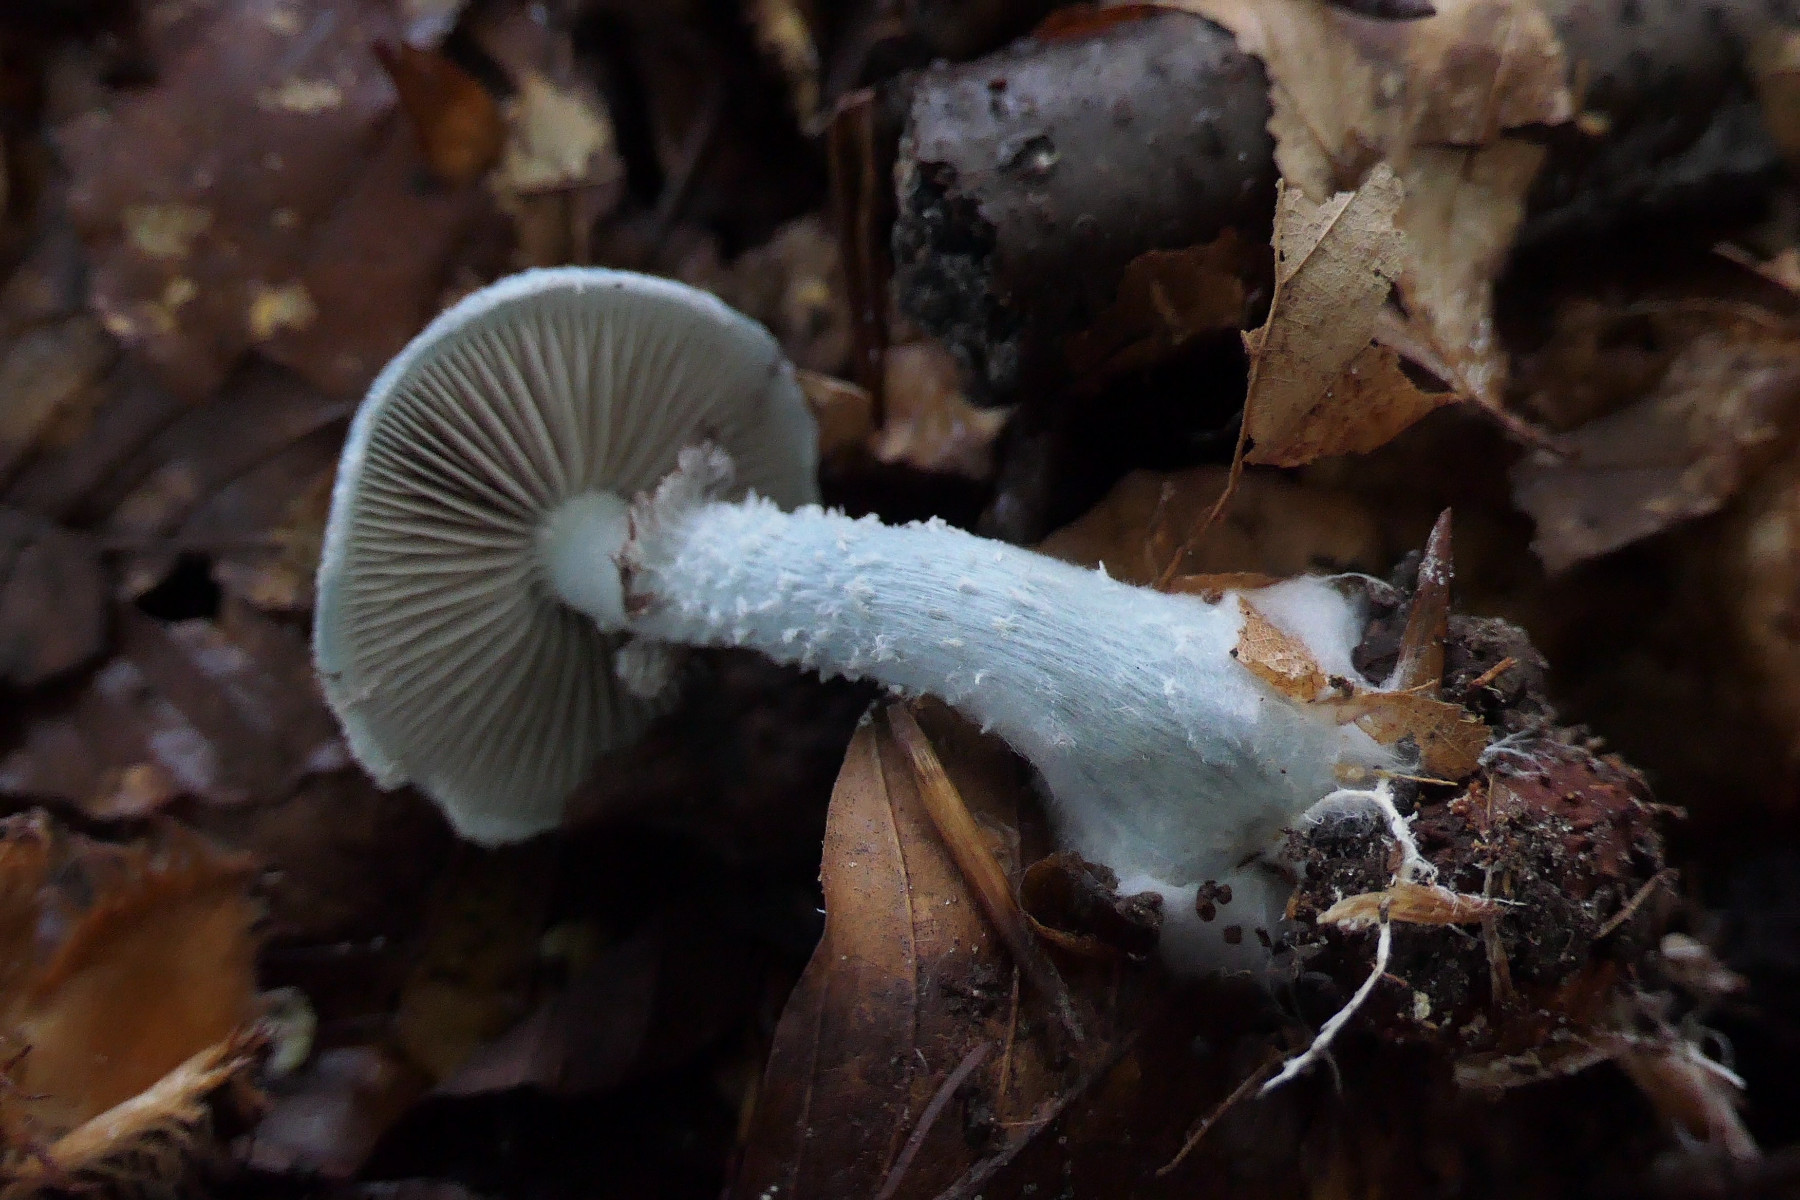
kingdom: Fungi
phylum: Basidiomycota
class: Agaricomycetes
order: Agaricales
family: Strophariaceae
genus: Stropharia
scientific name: Stropharia cyanea
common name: blågrøn bredblad
